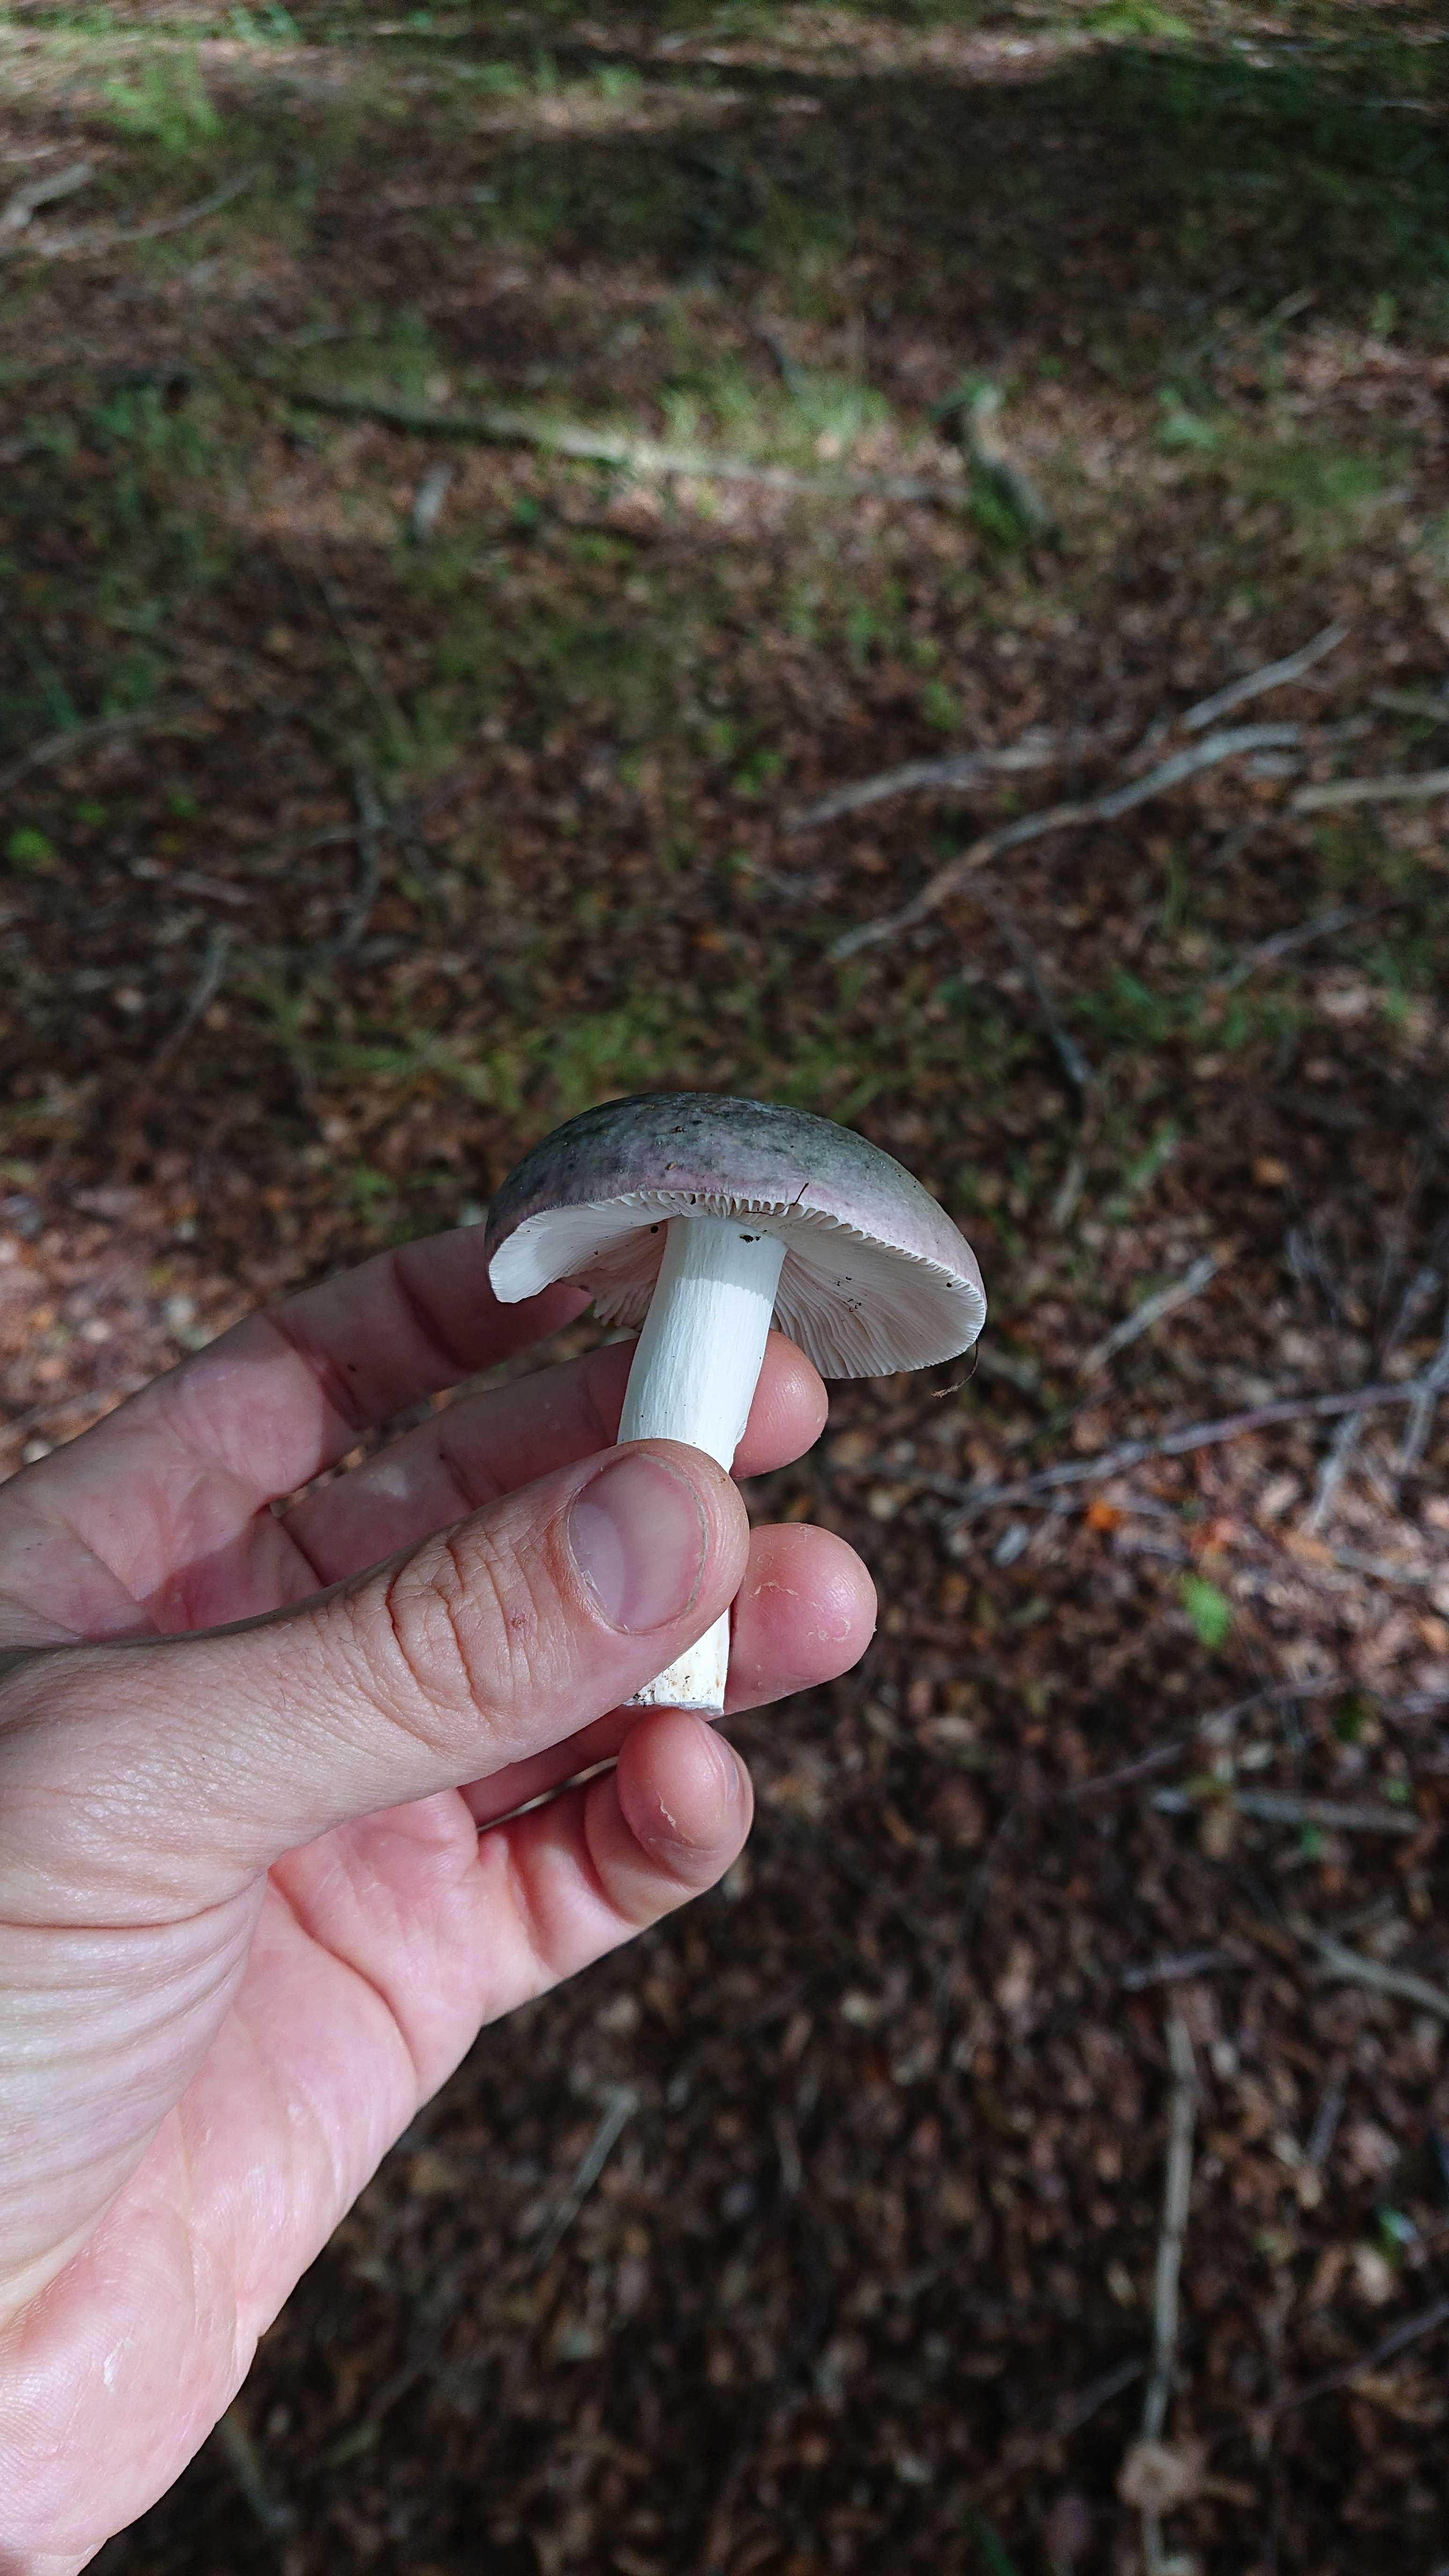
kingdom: Fungi
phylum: Basidiomycota
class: Agaricomycetes
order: Russulales
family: Russulaceae
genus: Russula
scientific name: Russula cyanoxantha
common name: broget skørhat
